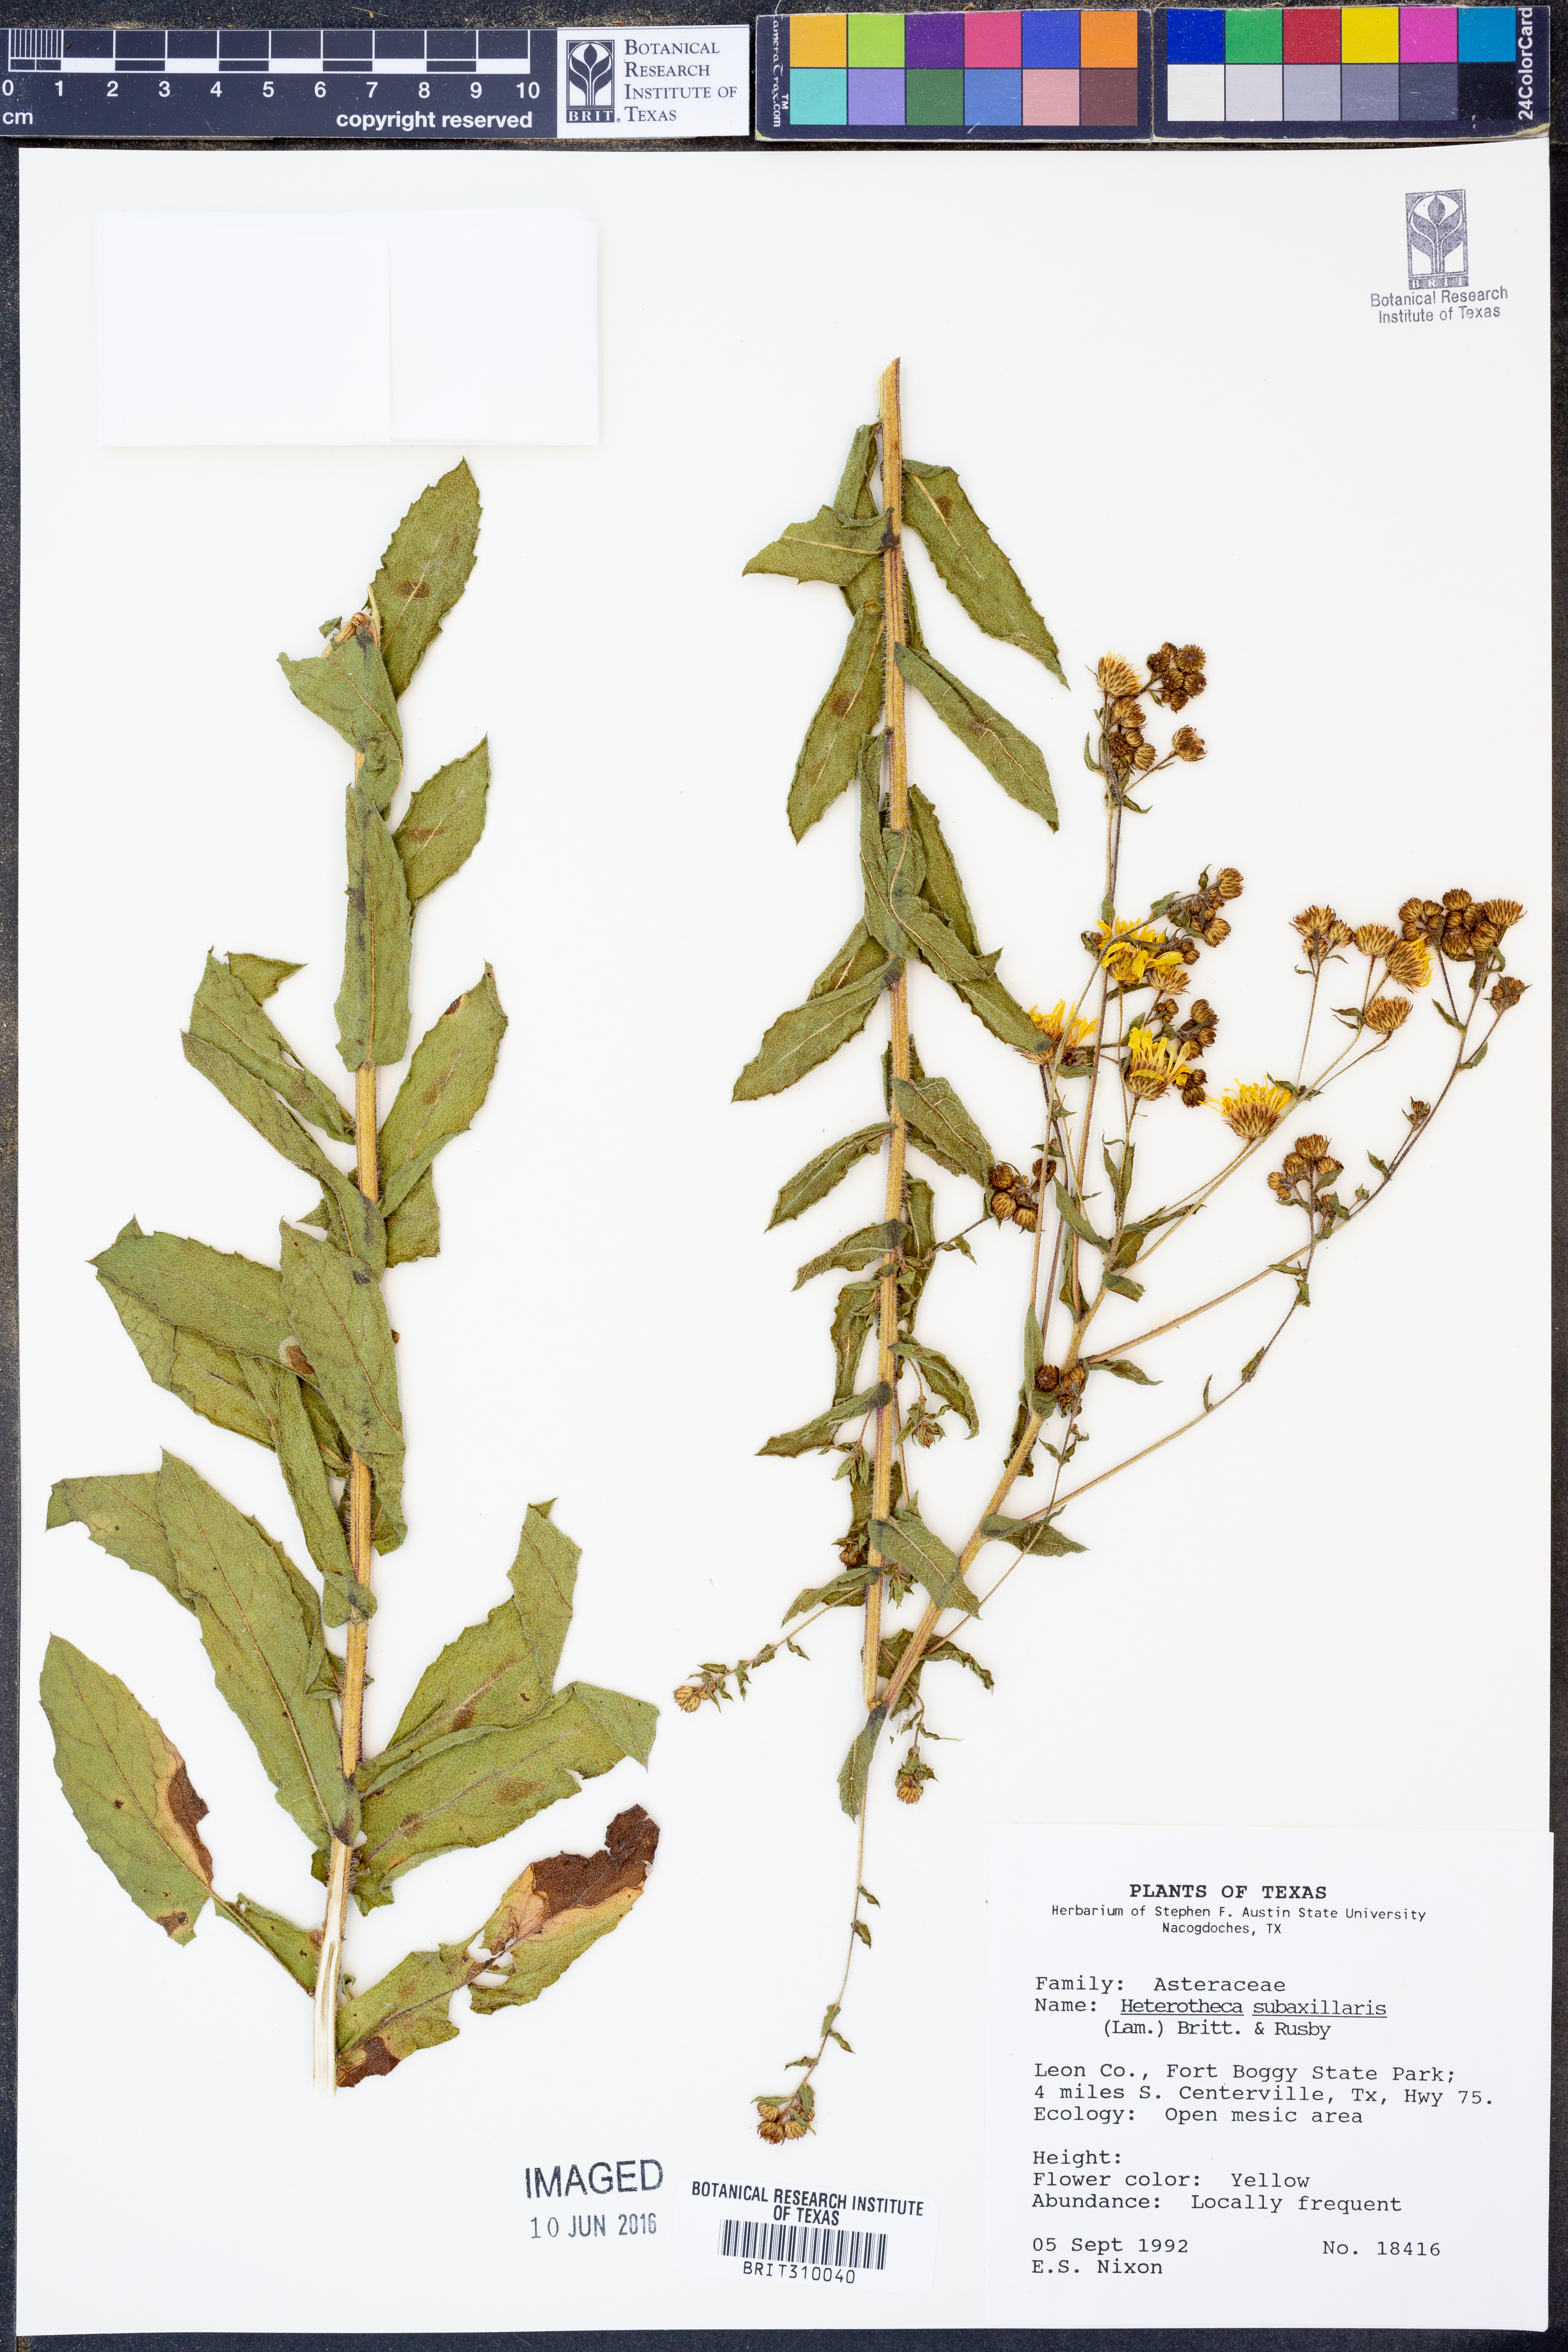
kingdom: Plantae
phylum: Tracheophyta
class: Magnoliopsida
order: Asterales
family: Asteraceae
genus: Heterotheca
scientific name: Heterotheca subaxillaris
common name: Camphorweed
